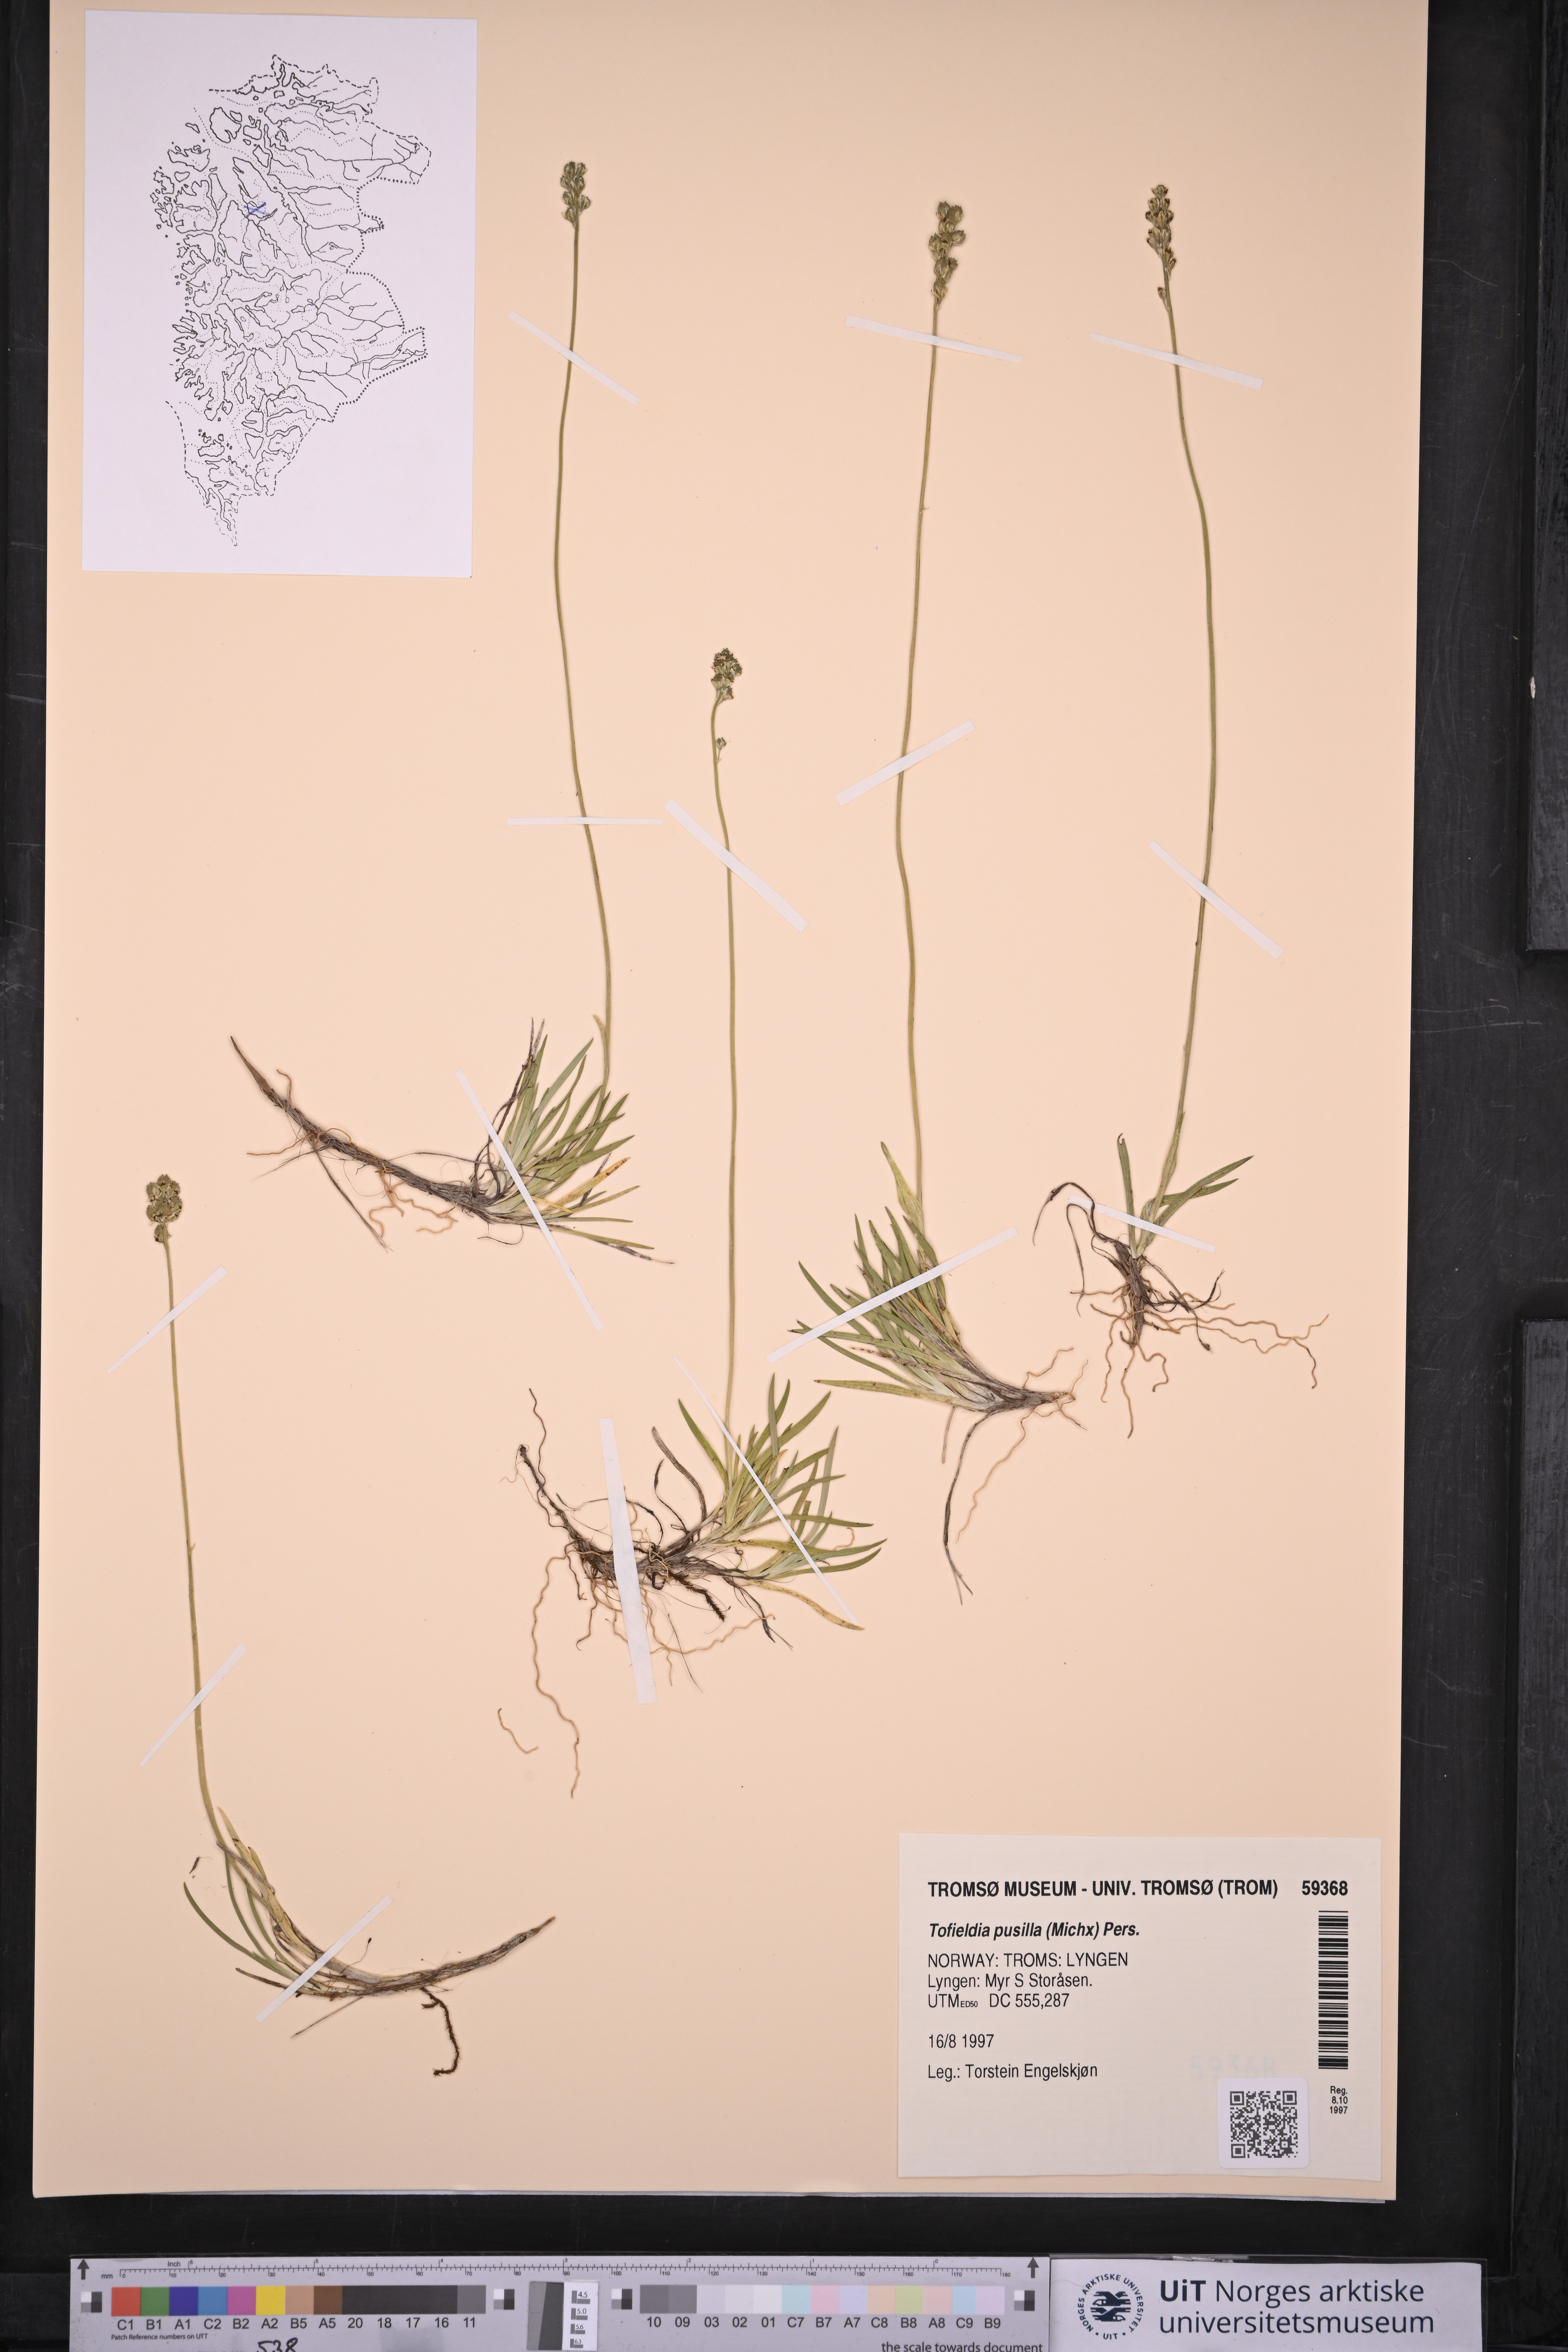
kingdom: Plantae
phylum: Tracheophyta
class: Liliopsida
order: Alismatales
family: Tofieldiaceae
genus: Tofieldia
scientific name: Tofieldia pusilla
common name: Scottish false asphodel
